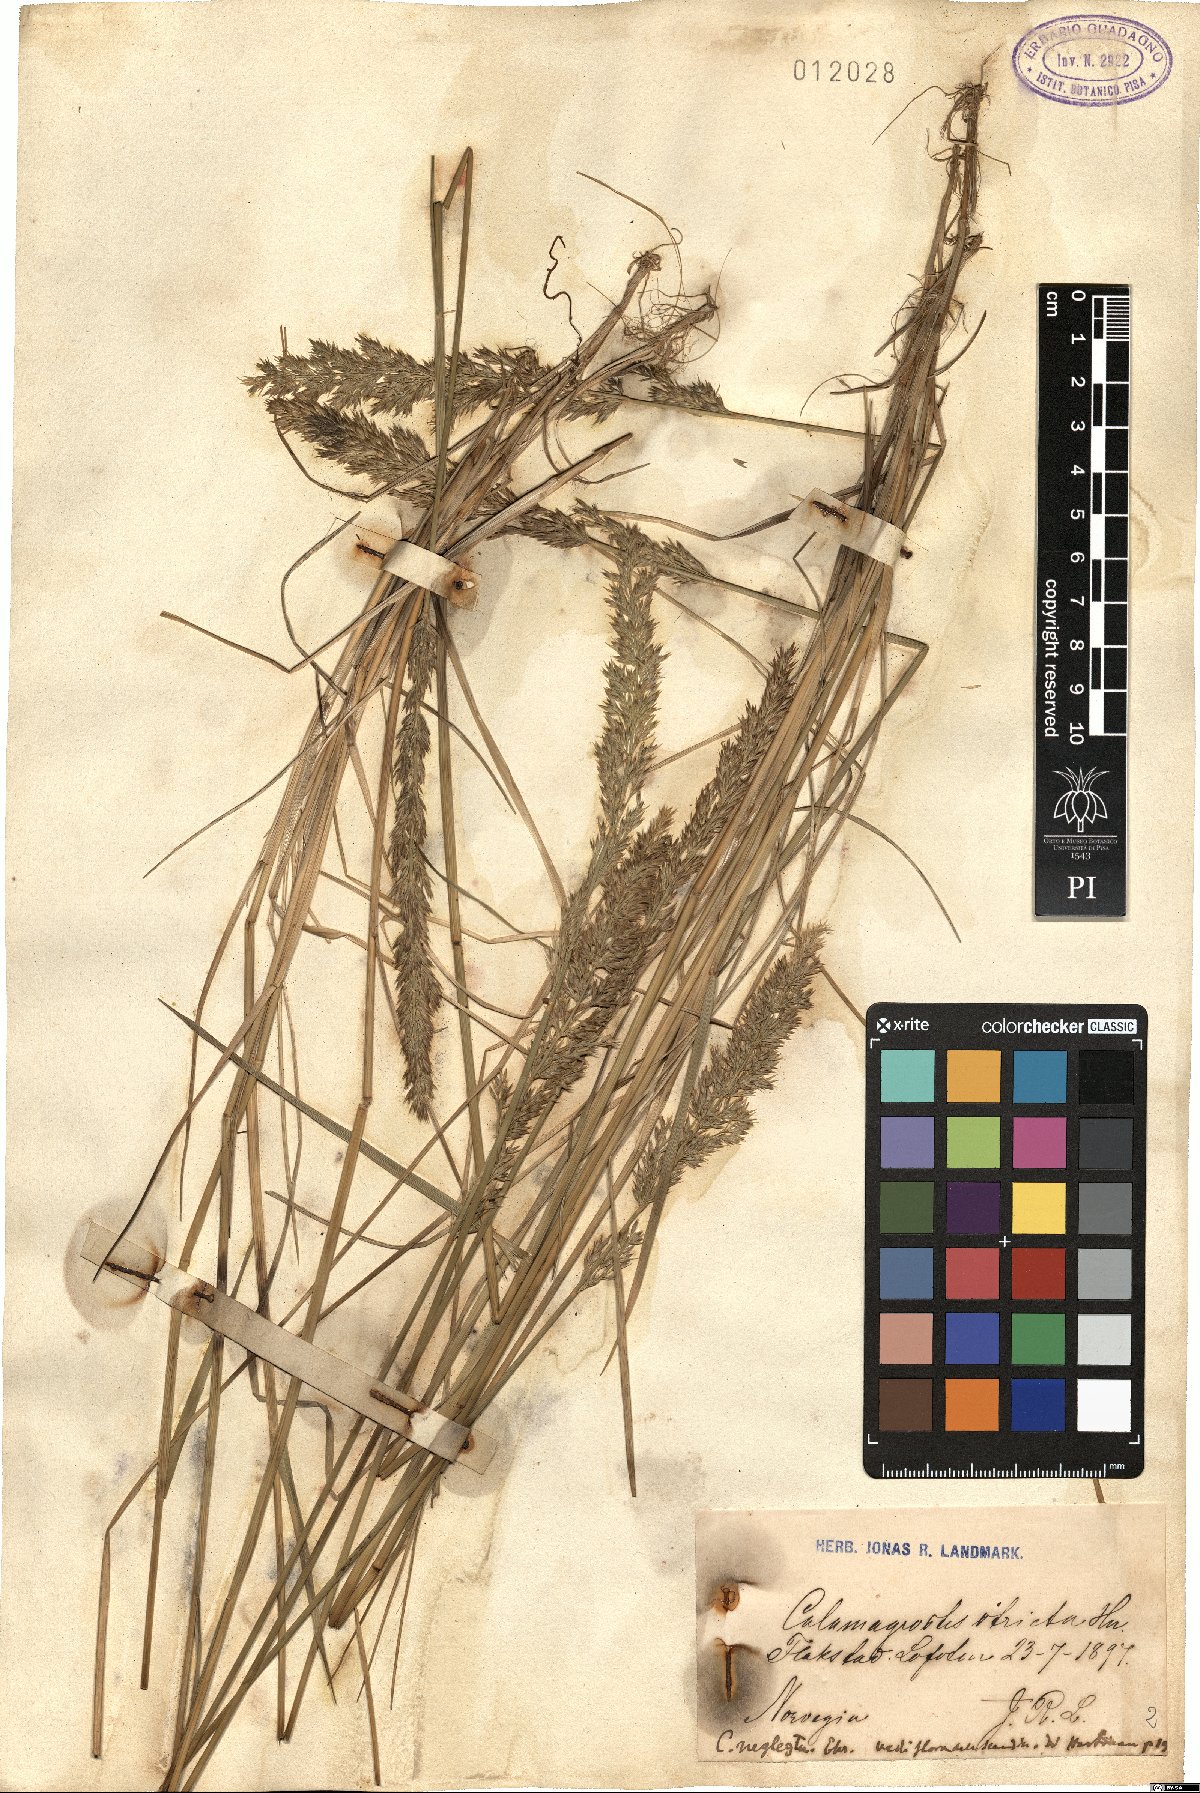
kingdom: Plantae
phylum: Tracheophyta
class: Liliopsida
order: Poales
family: Poaceae
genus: Calamagrostis
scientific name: Calamagrostis stricta
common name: Narrow small-reed
